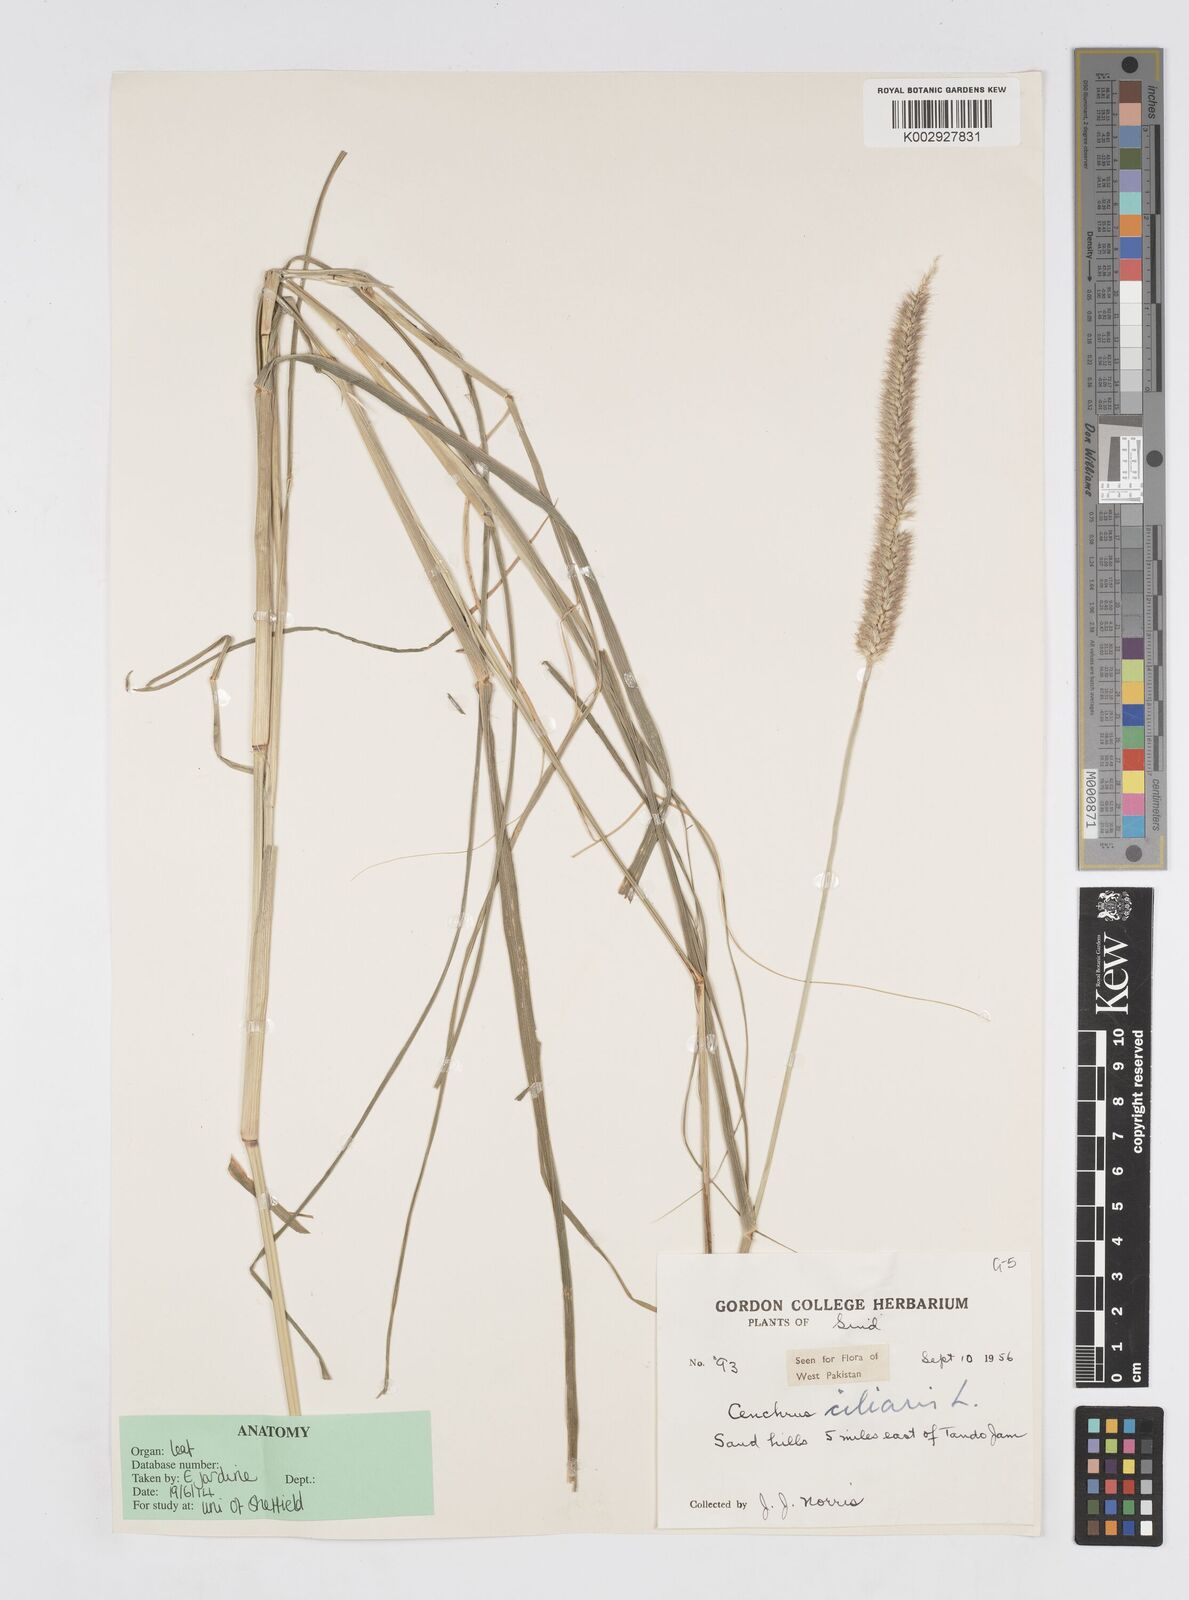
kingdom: Plantae
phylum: Tracheophyta
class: Liliopsida
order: Poales
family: Poaceae
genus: Cenchrus
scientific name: Cenchrus ciliaris
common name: Buffelgrass
